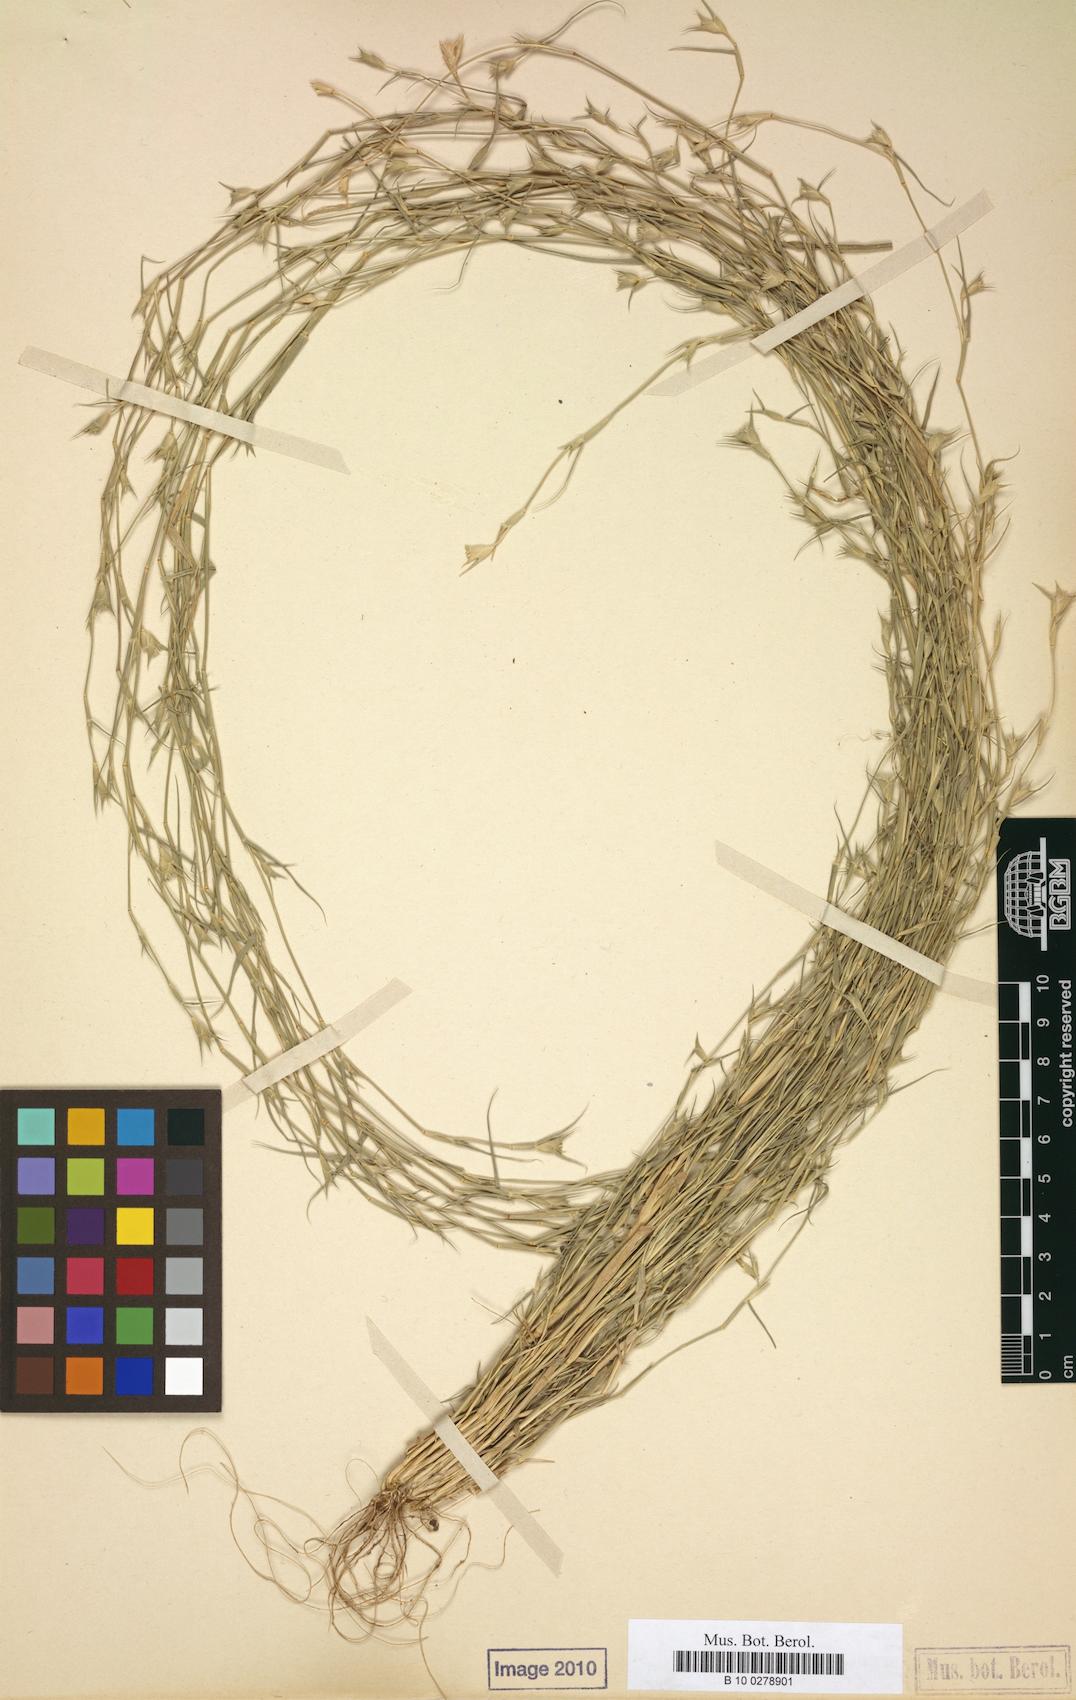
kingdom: Plantae
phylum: Tracheophyta
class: Liliopsida
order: Poales
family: Poaceae
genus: Sporobolus
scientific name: Sporobolus factorovskyi
